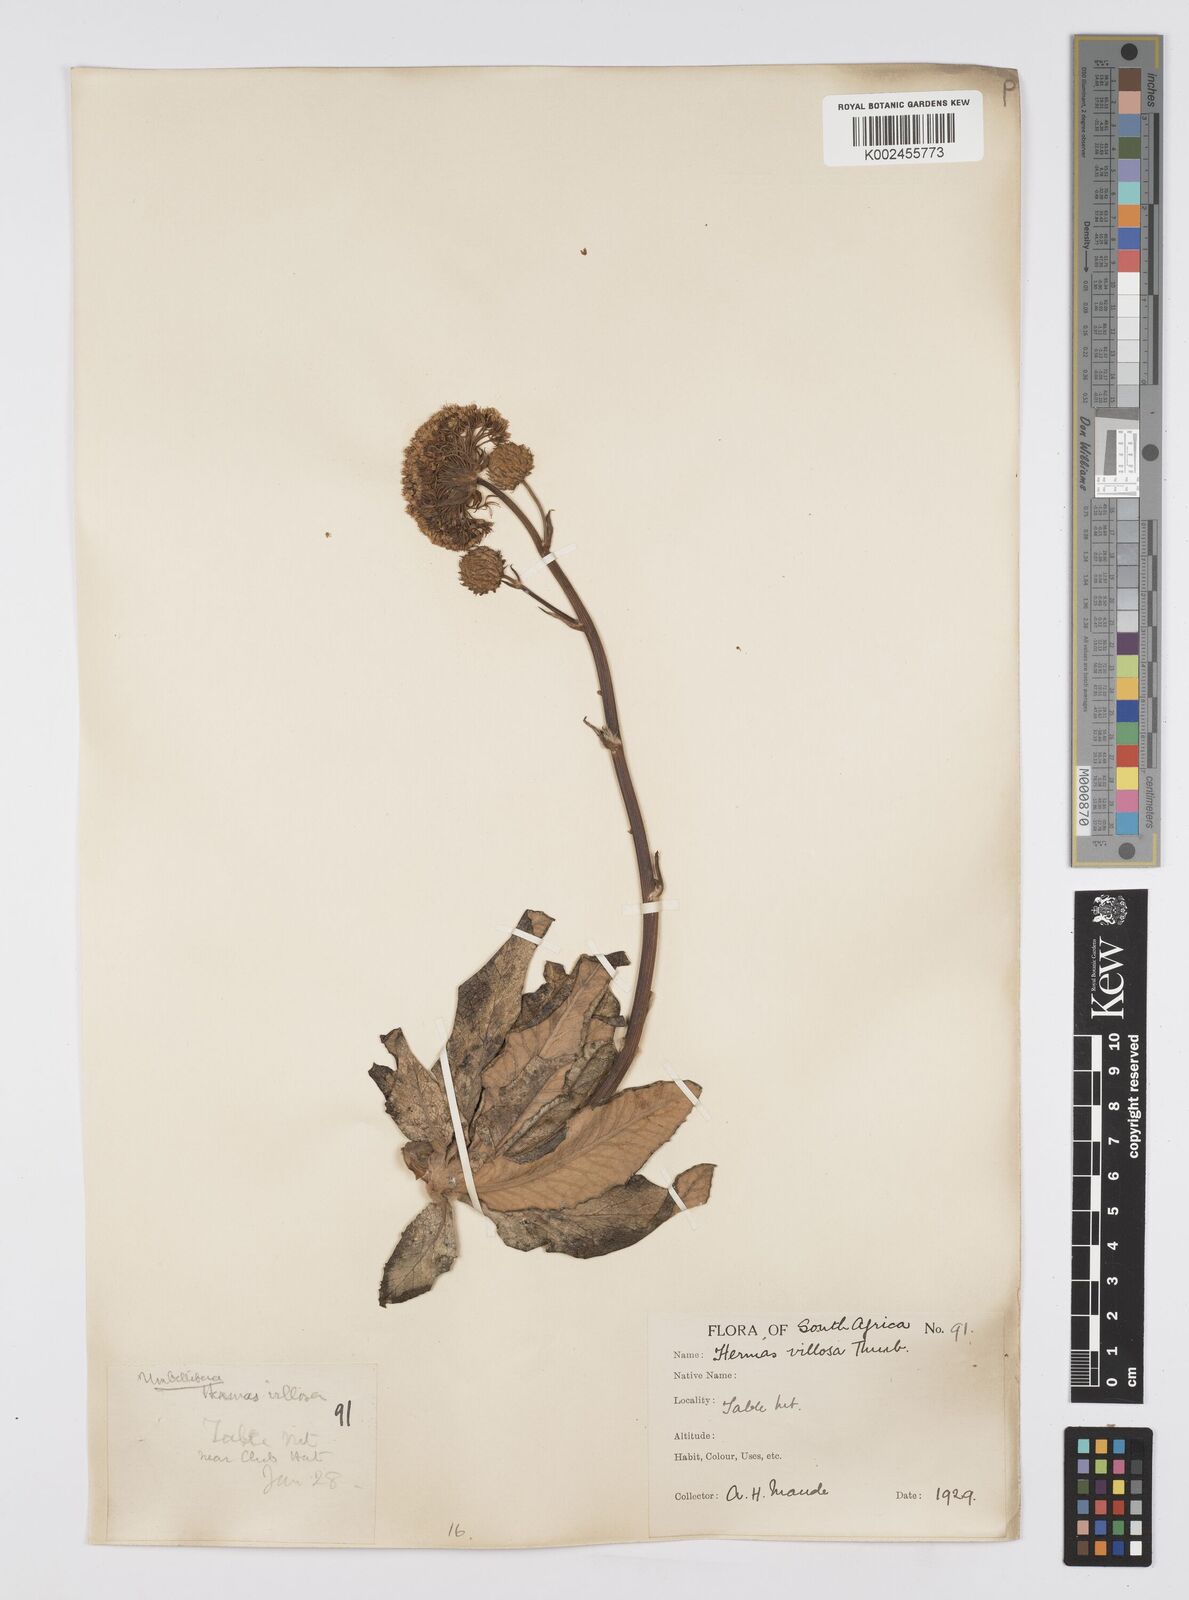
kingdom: Plantae
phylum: Tracheophyta
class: Magnoliopsida
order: Apiales
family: Apiaceae
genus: Hermas
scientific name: Hermas villosa
